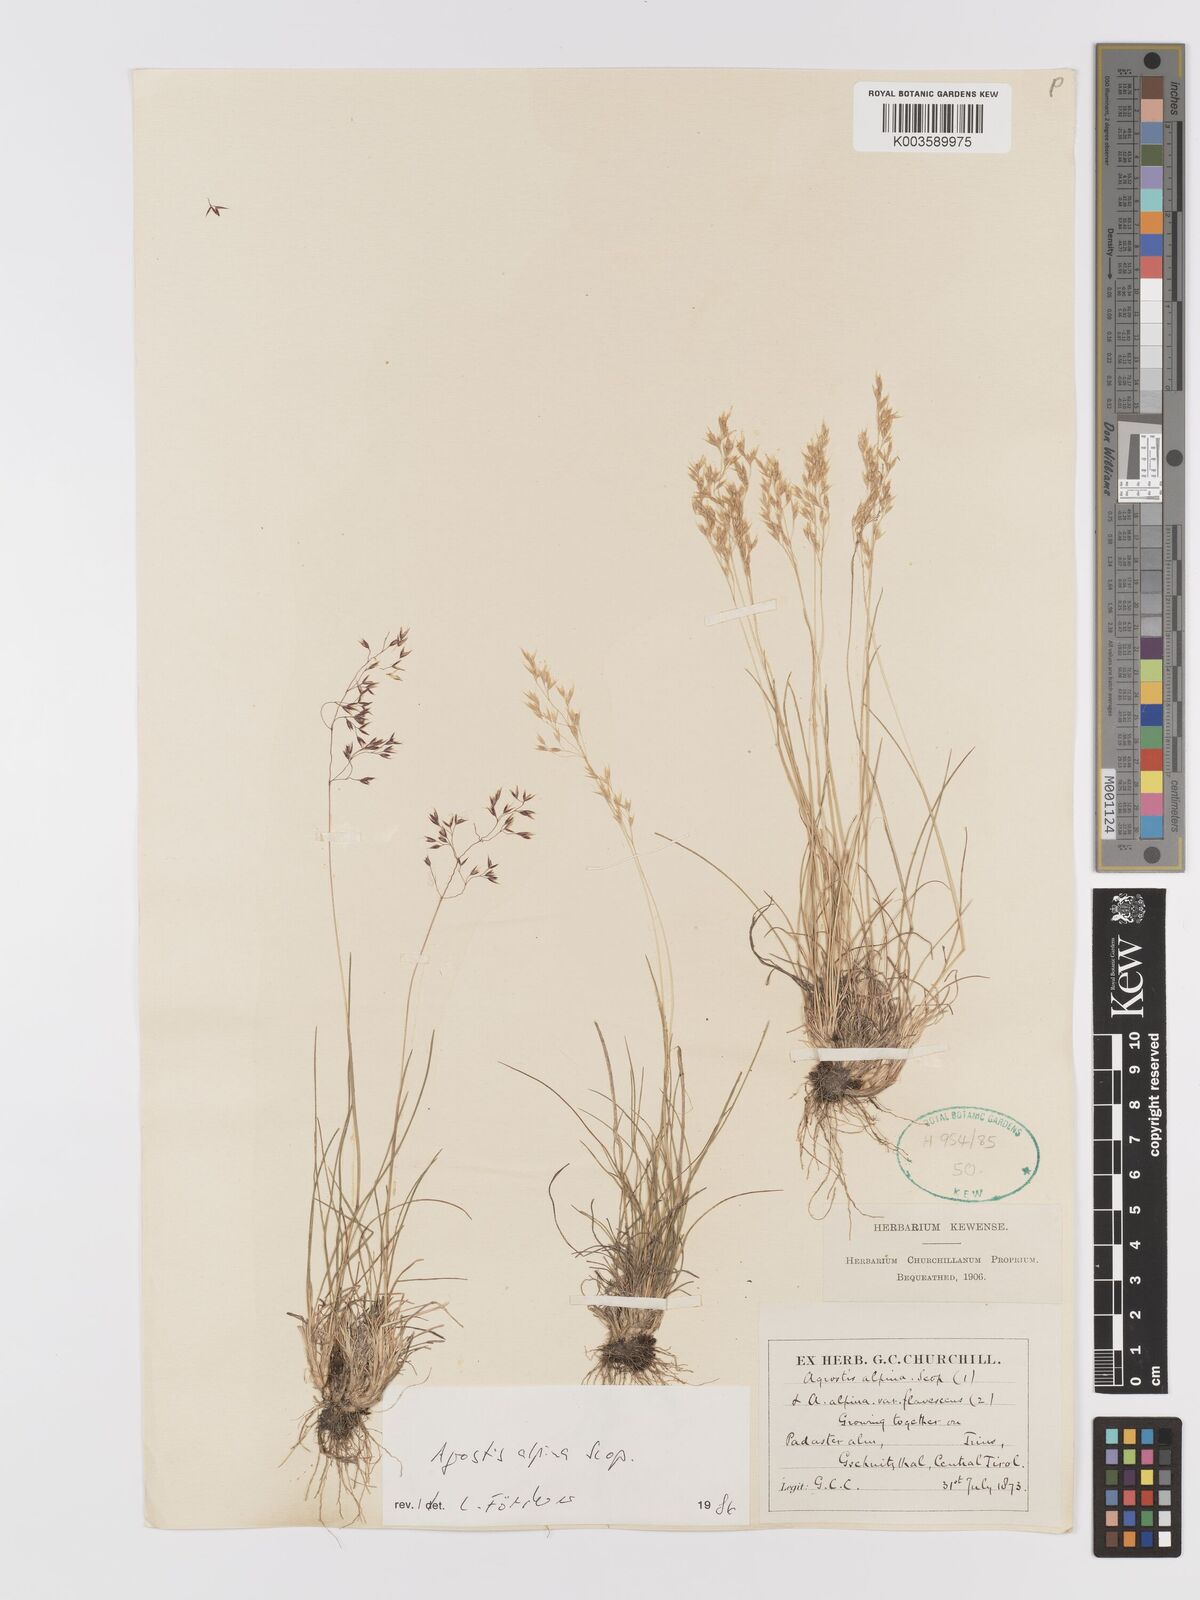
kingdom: Plantae
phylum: Tracheophyta
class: Liliopsida
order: Poales
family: Poaceae
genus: Alpagrostis
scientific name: Alpagrostis alpina
